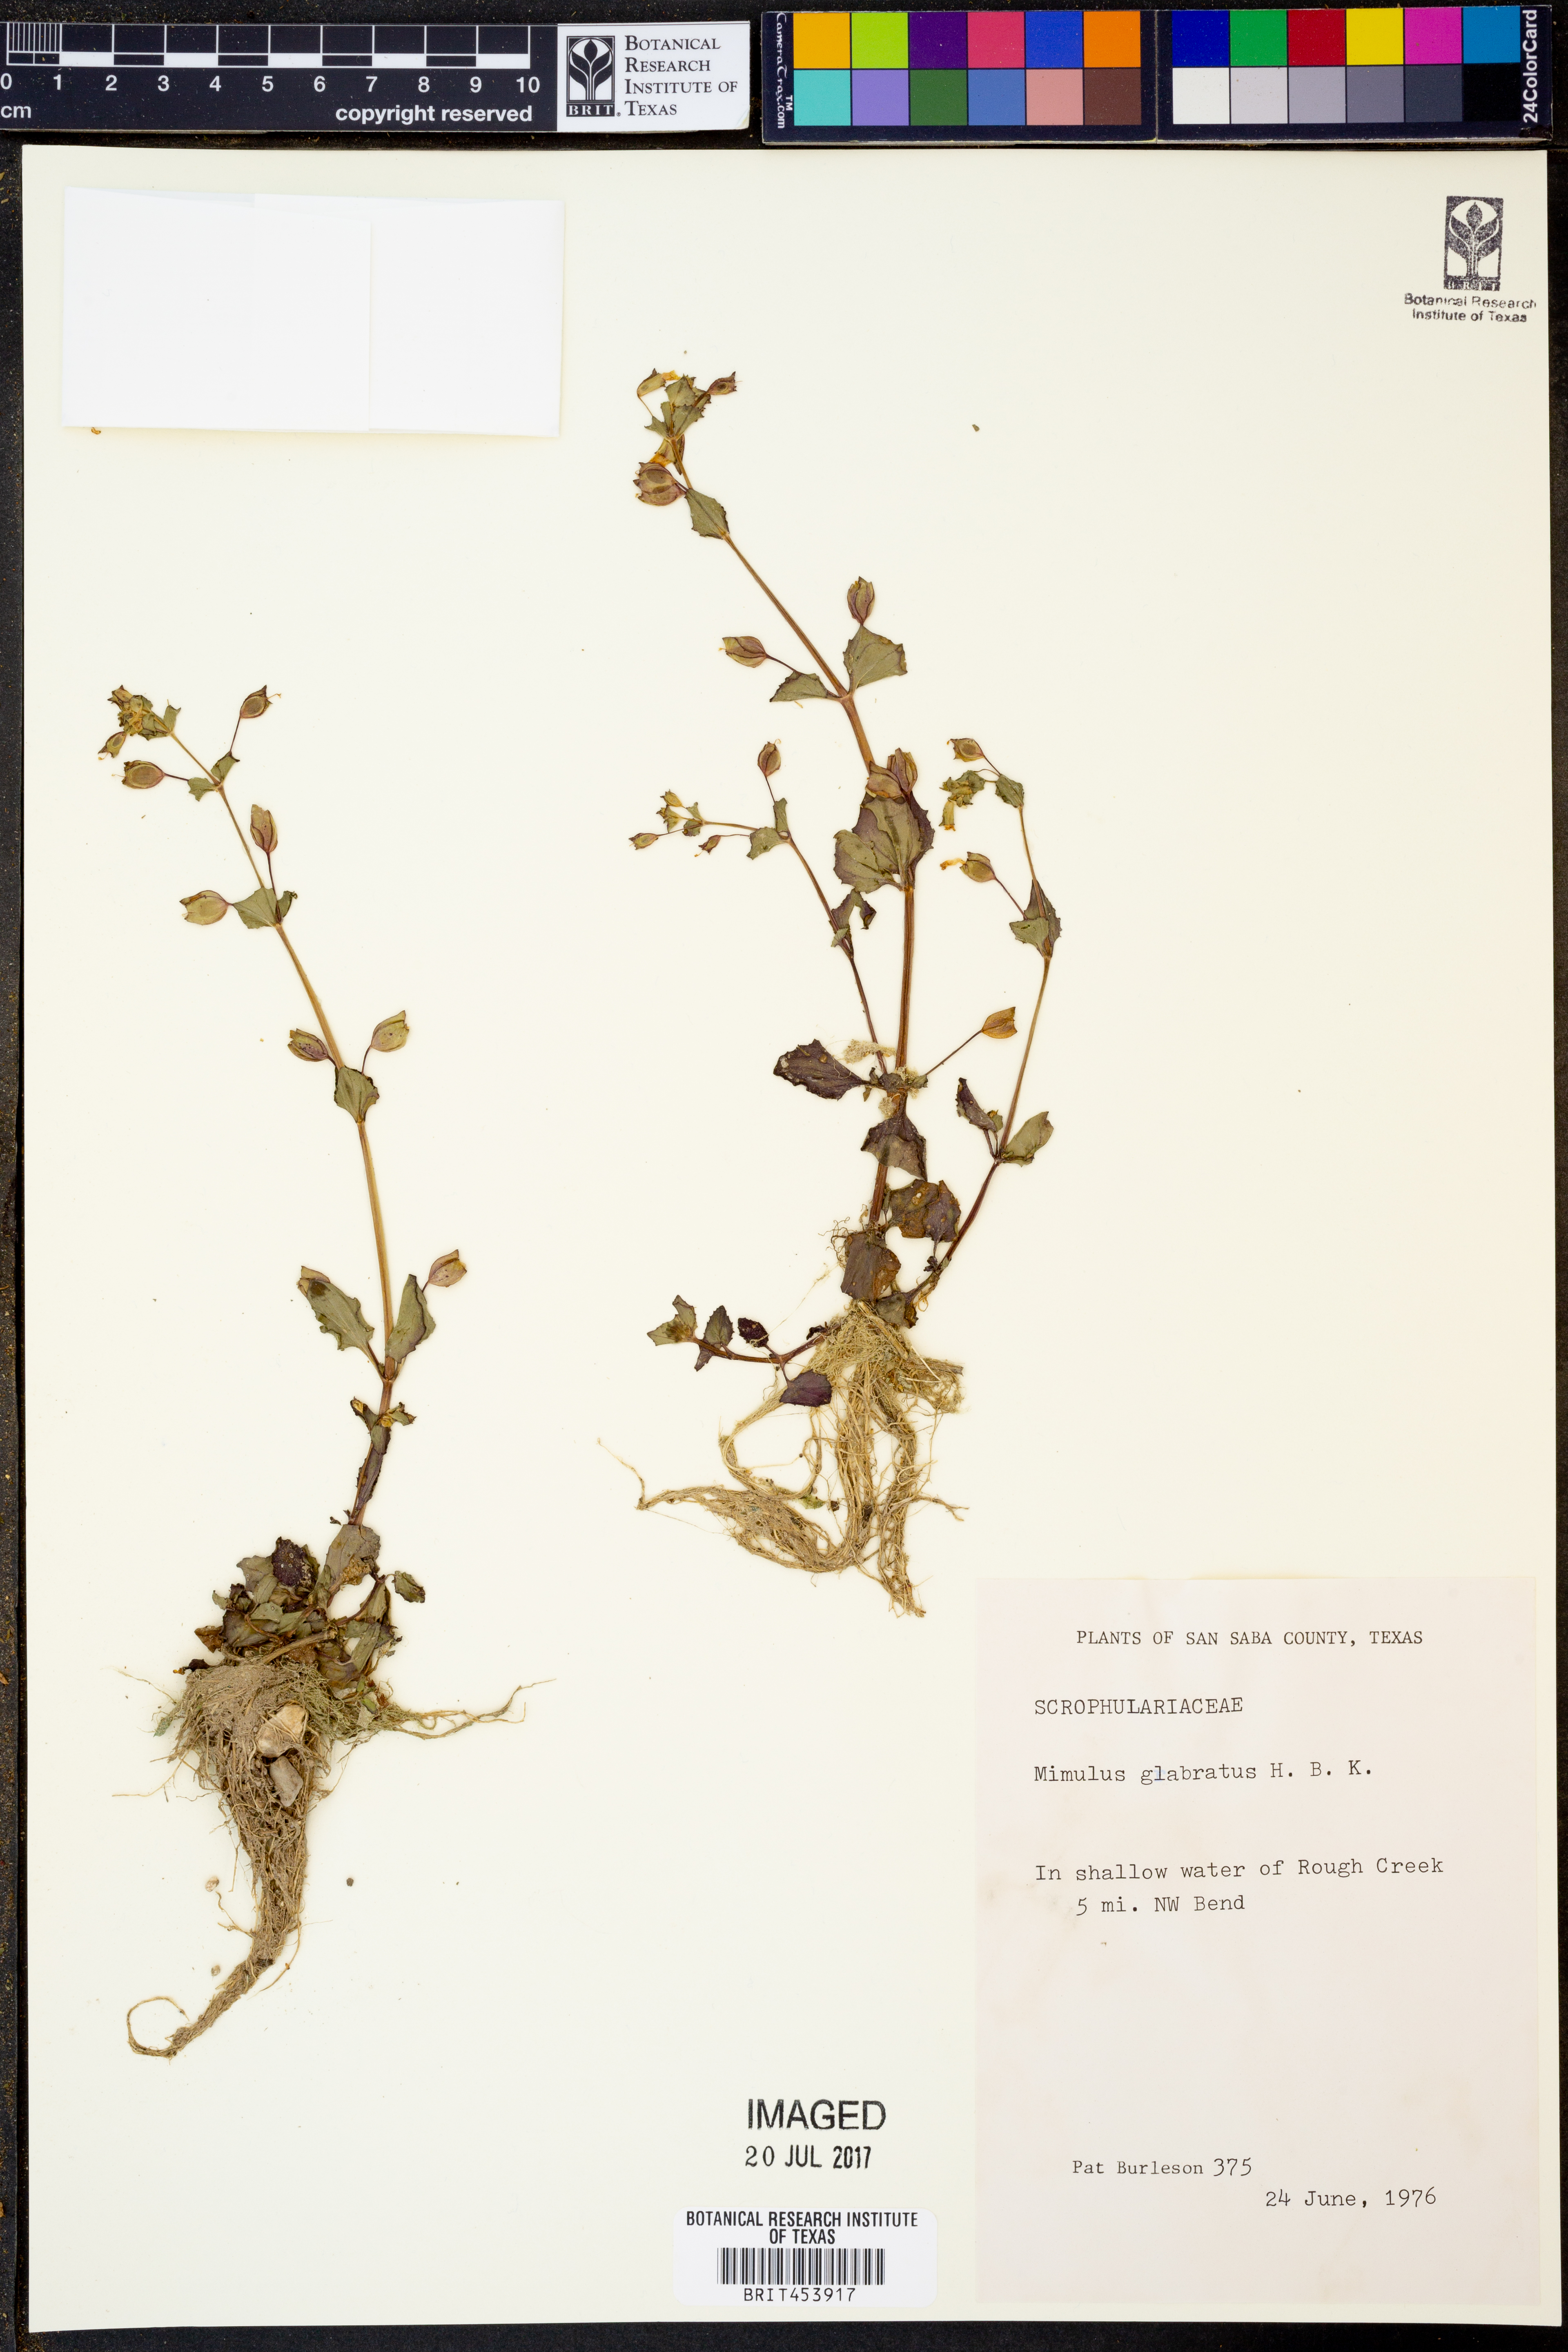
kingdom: Plantae
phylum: Tracheophyta
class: Magnoliopsida
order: Lamiales
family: Phrymaceae
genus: Erythranthe
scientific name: Erythranthe glabrata
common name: Round-leaved monkeyflower
